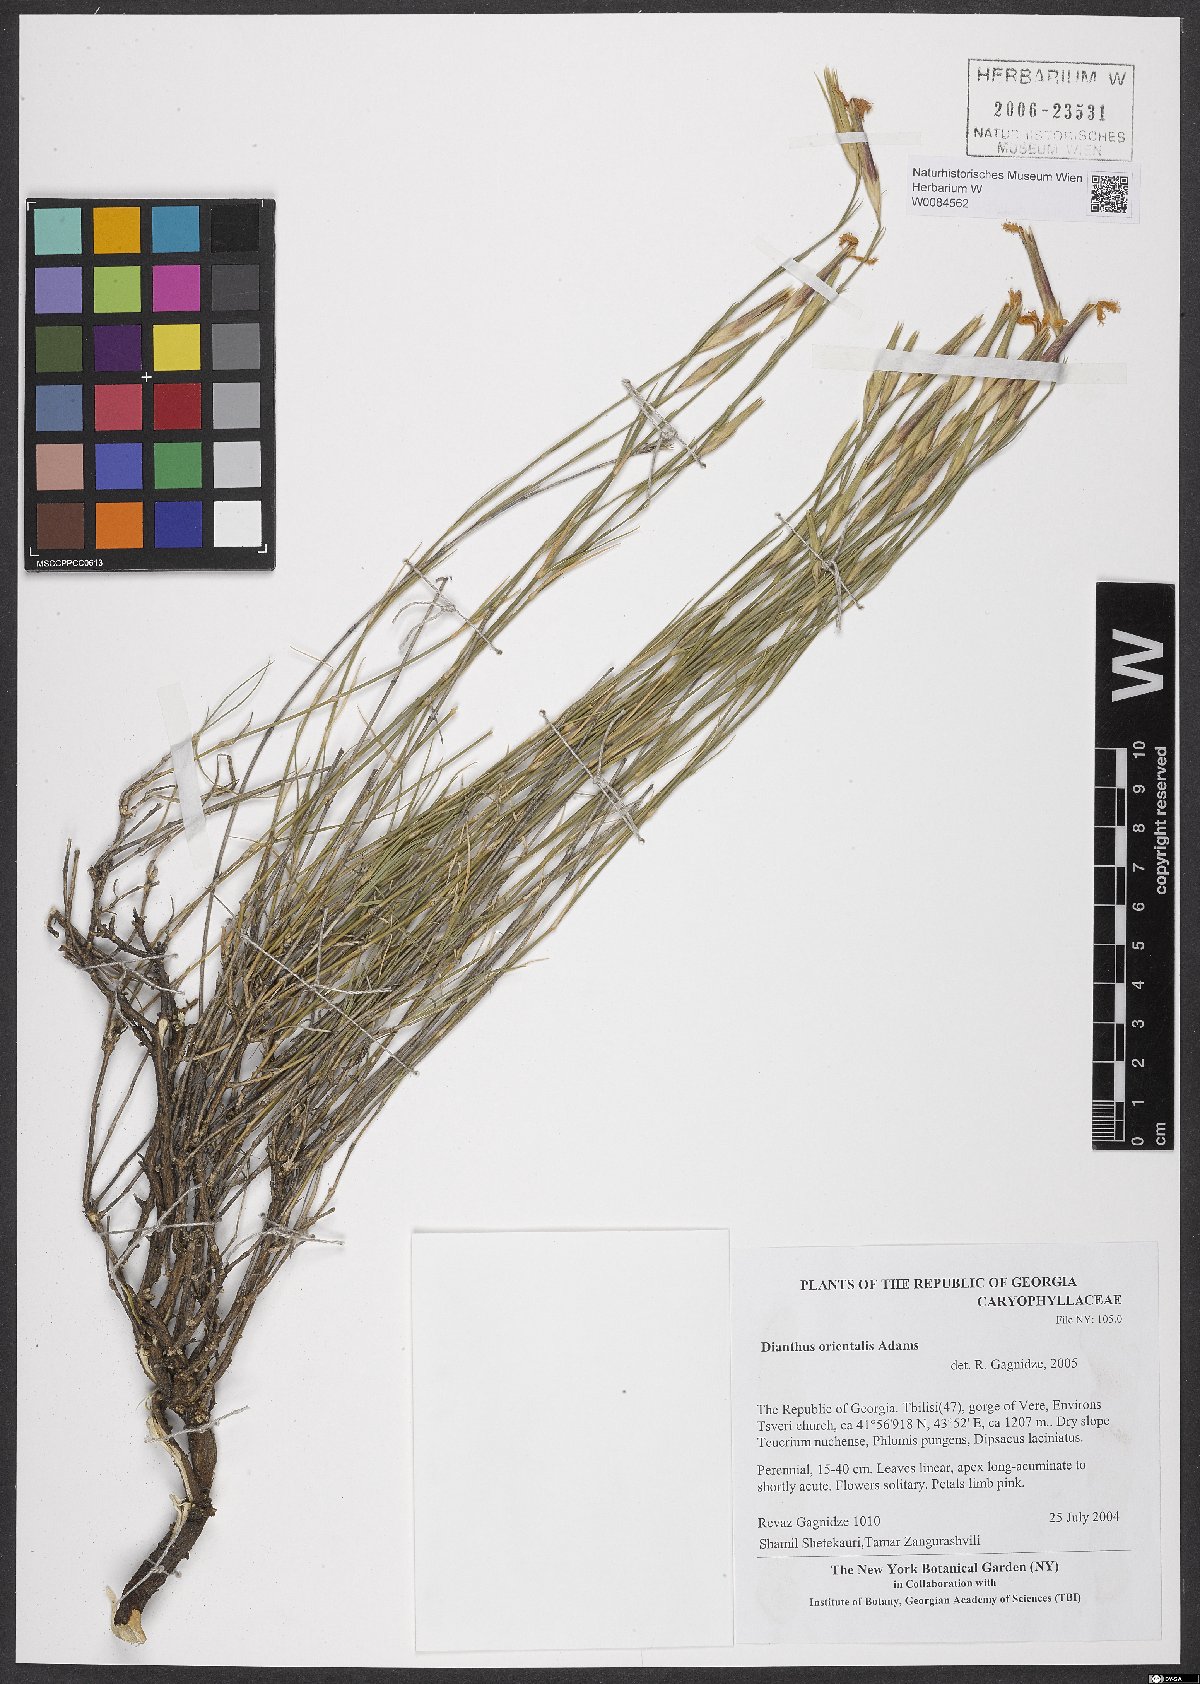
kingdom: Plantae
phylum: Tracheophyta
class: Magnoliopsida
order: Caryophyllales
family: Caryophyllaceae
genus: Dianthus
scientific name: Dianthus orientalis
